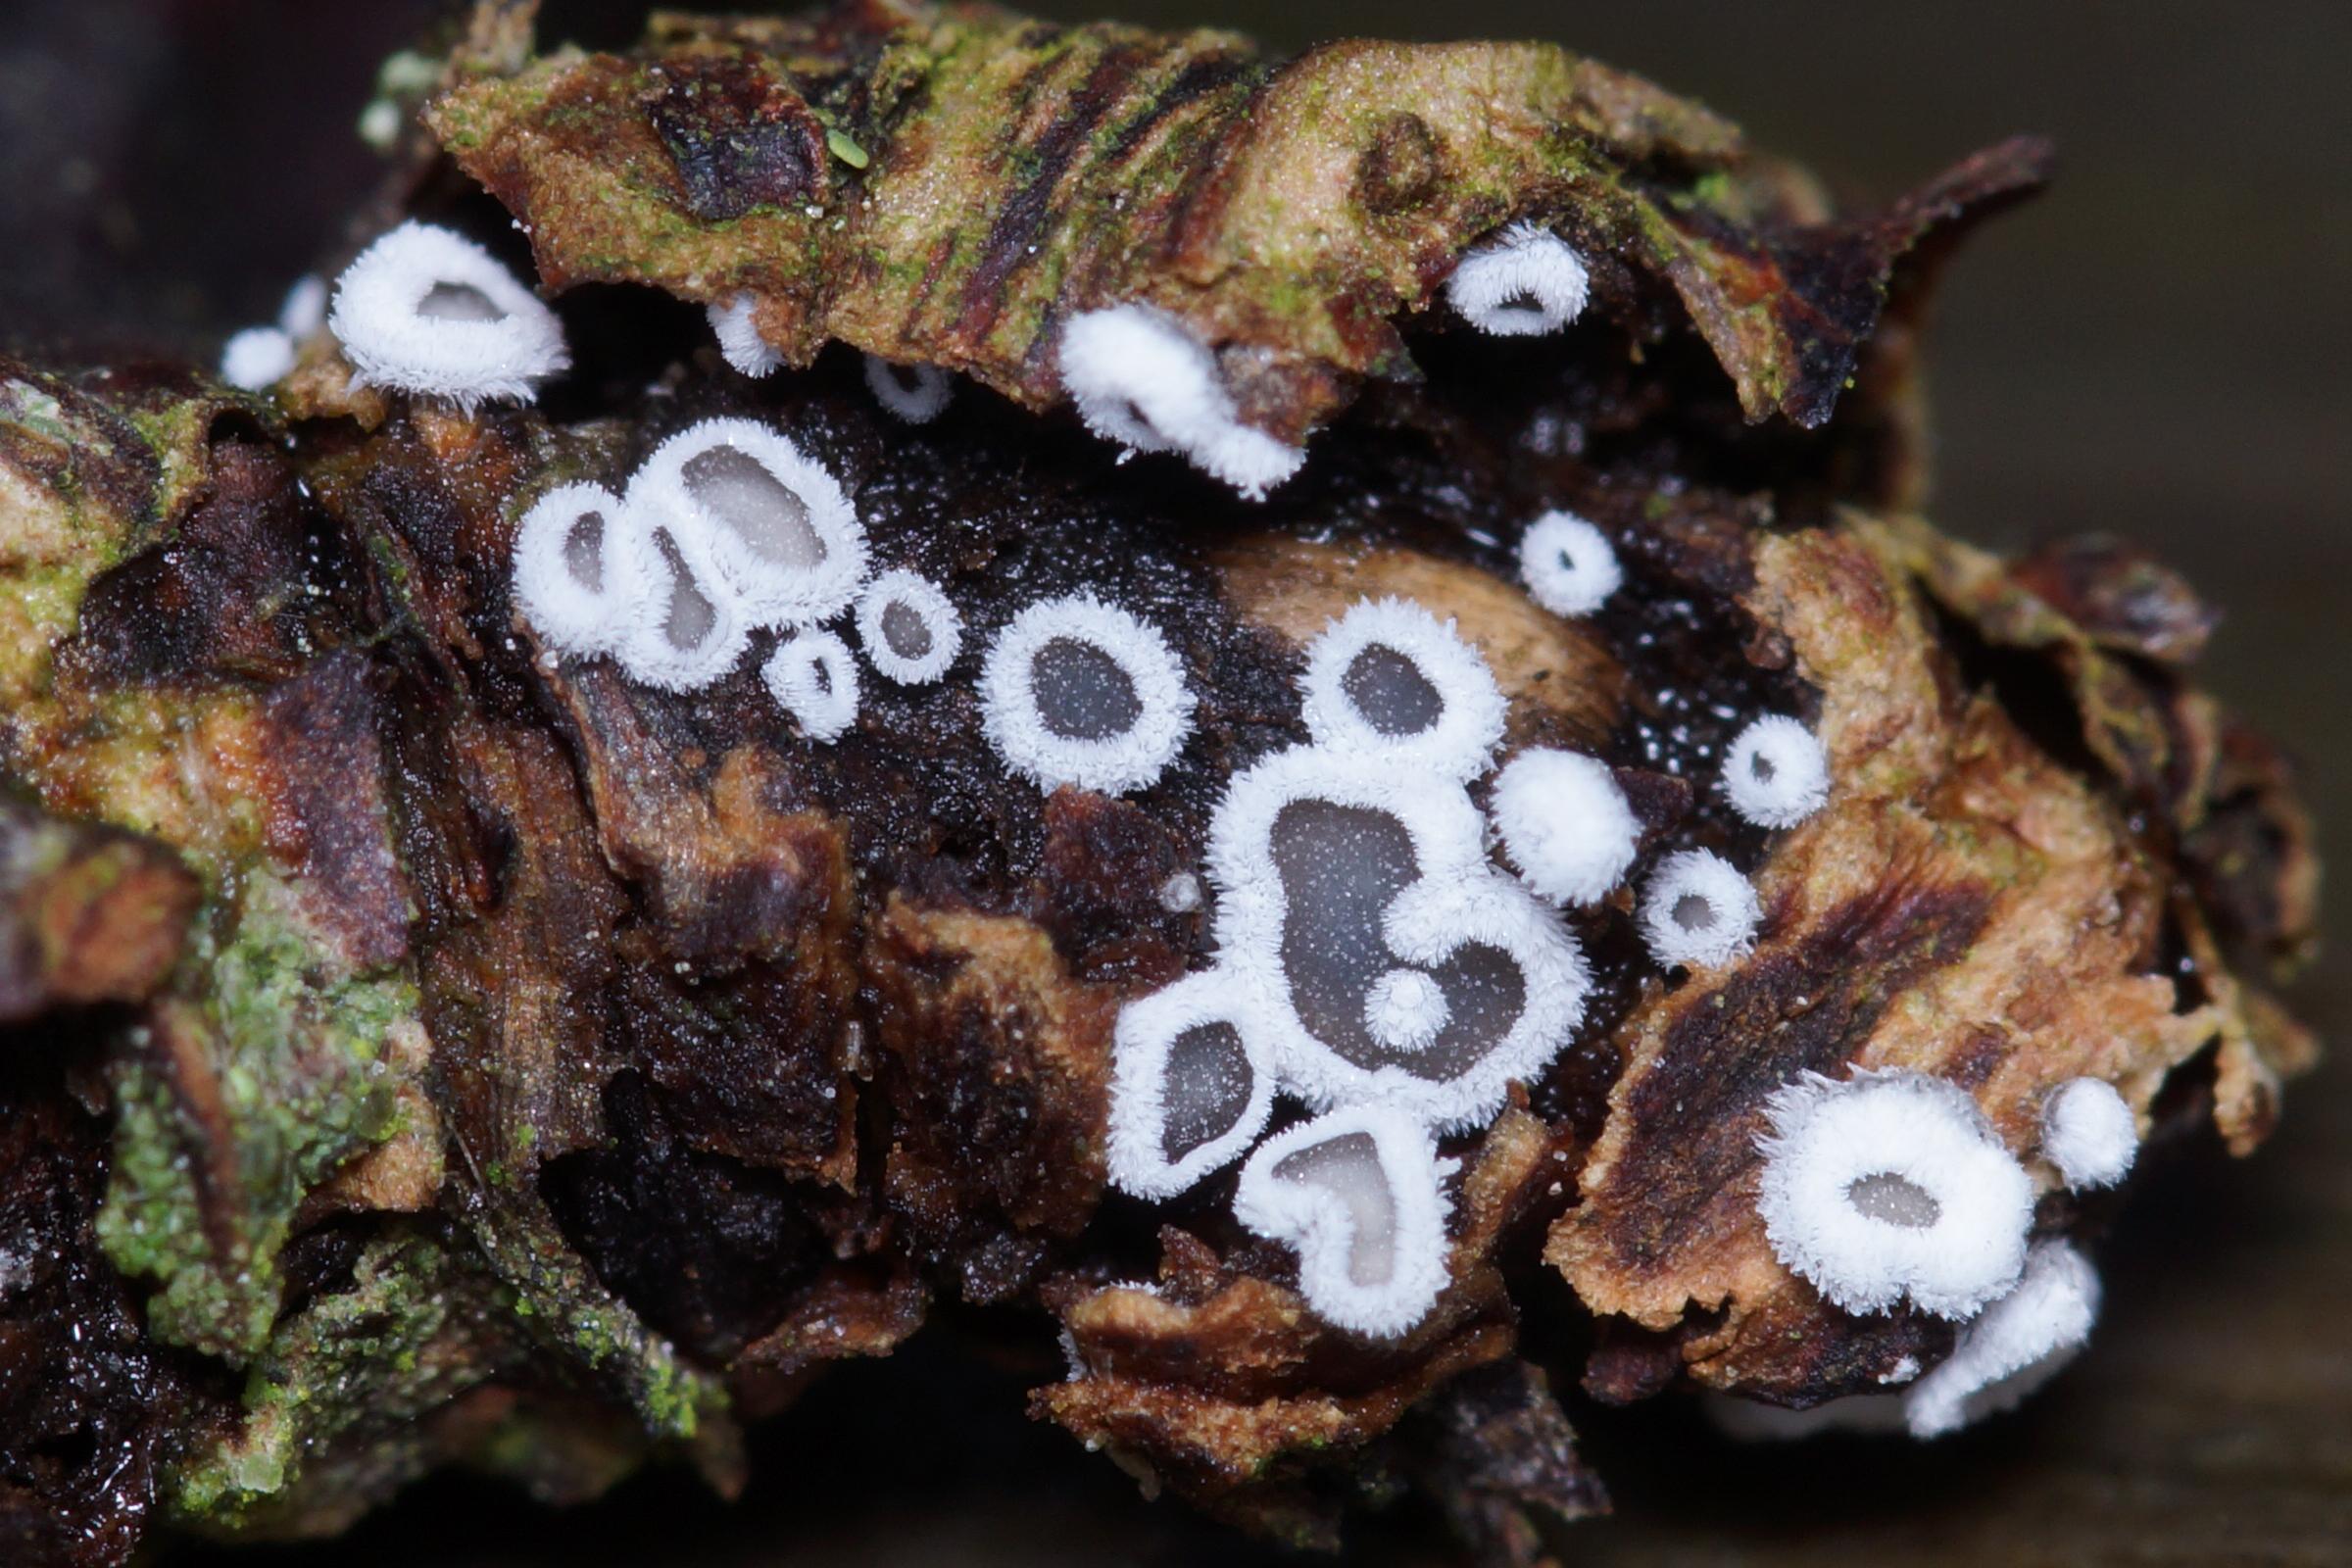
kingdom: Fungi
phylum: Basidiomycota
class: Agaricomycetes
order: Agaricales
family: Niaceae
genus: Lachnella
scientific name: Lachnella alboviolascens
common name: grå frynserede
